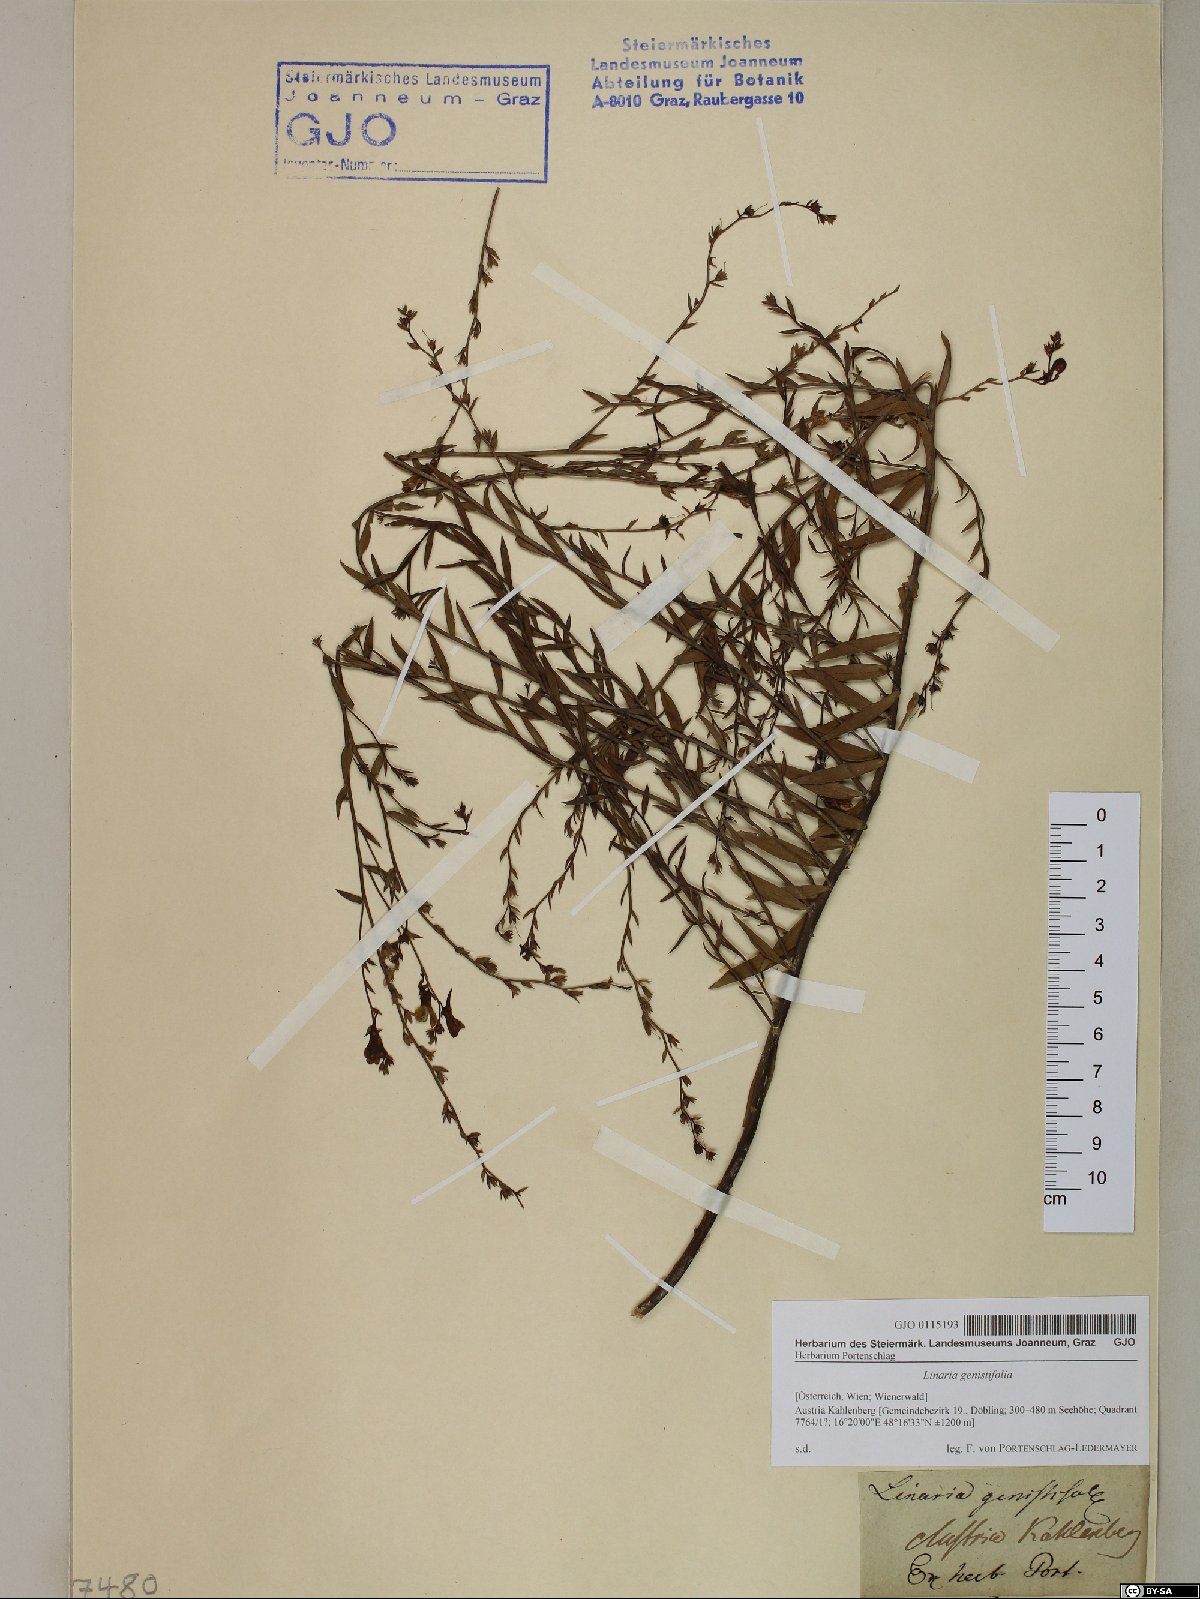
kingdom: Plantae
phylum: Tracheophyta
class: Magnoliopsida
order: Lamiales
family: Plantaginaceae
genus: Linaria
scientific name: Linaria genistifolia
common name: Broomleaf toadflax
